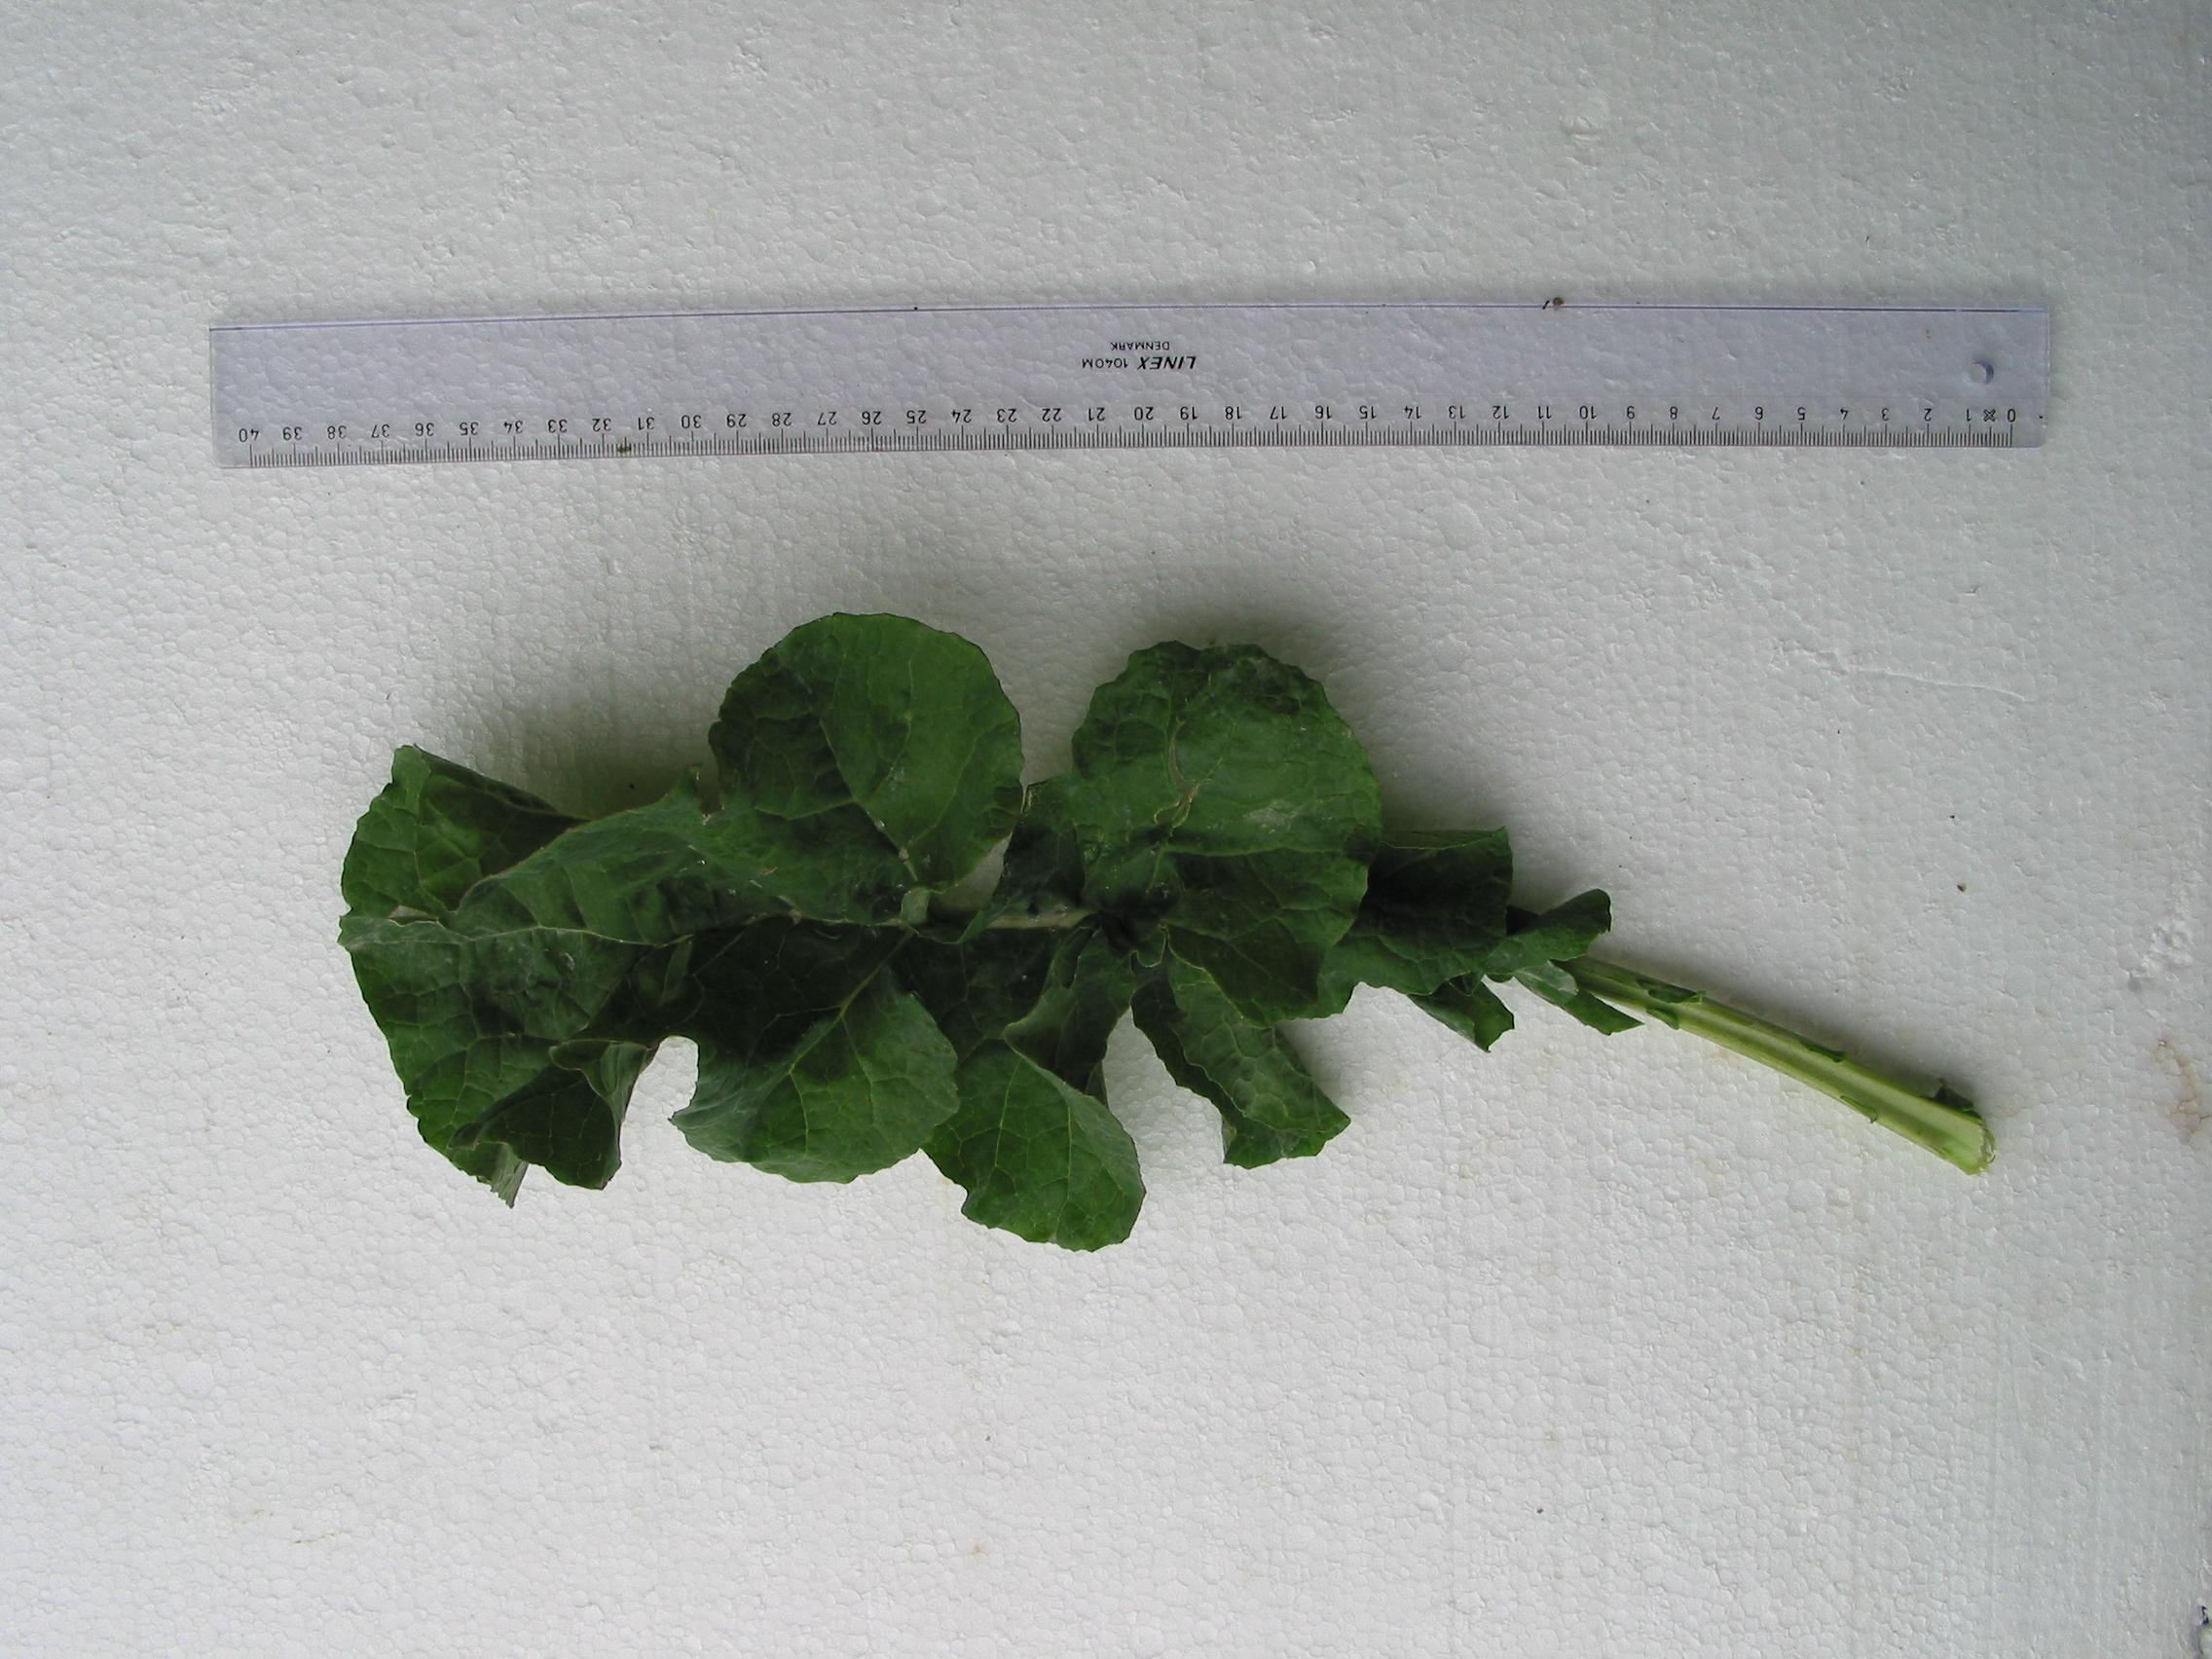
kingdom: Plantae
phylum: Tracheophyta
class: Magnoliopsida
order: Brassicales
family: Brassicaceae
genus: Brassica
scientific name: Brassica napus
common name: Rape
